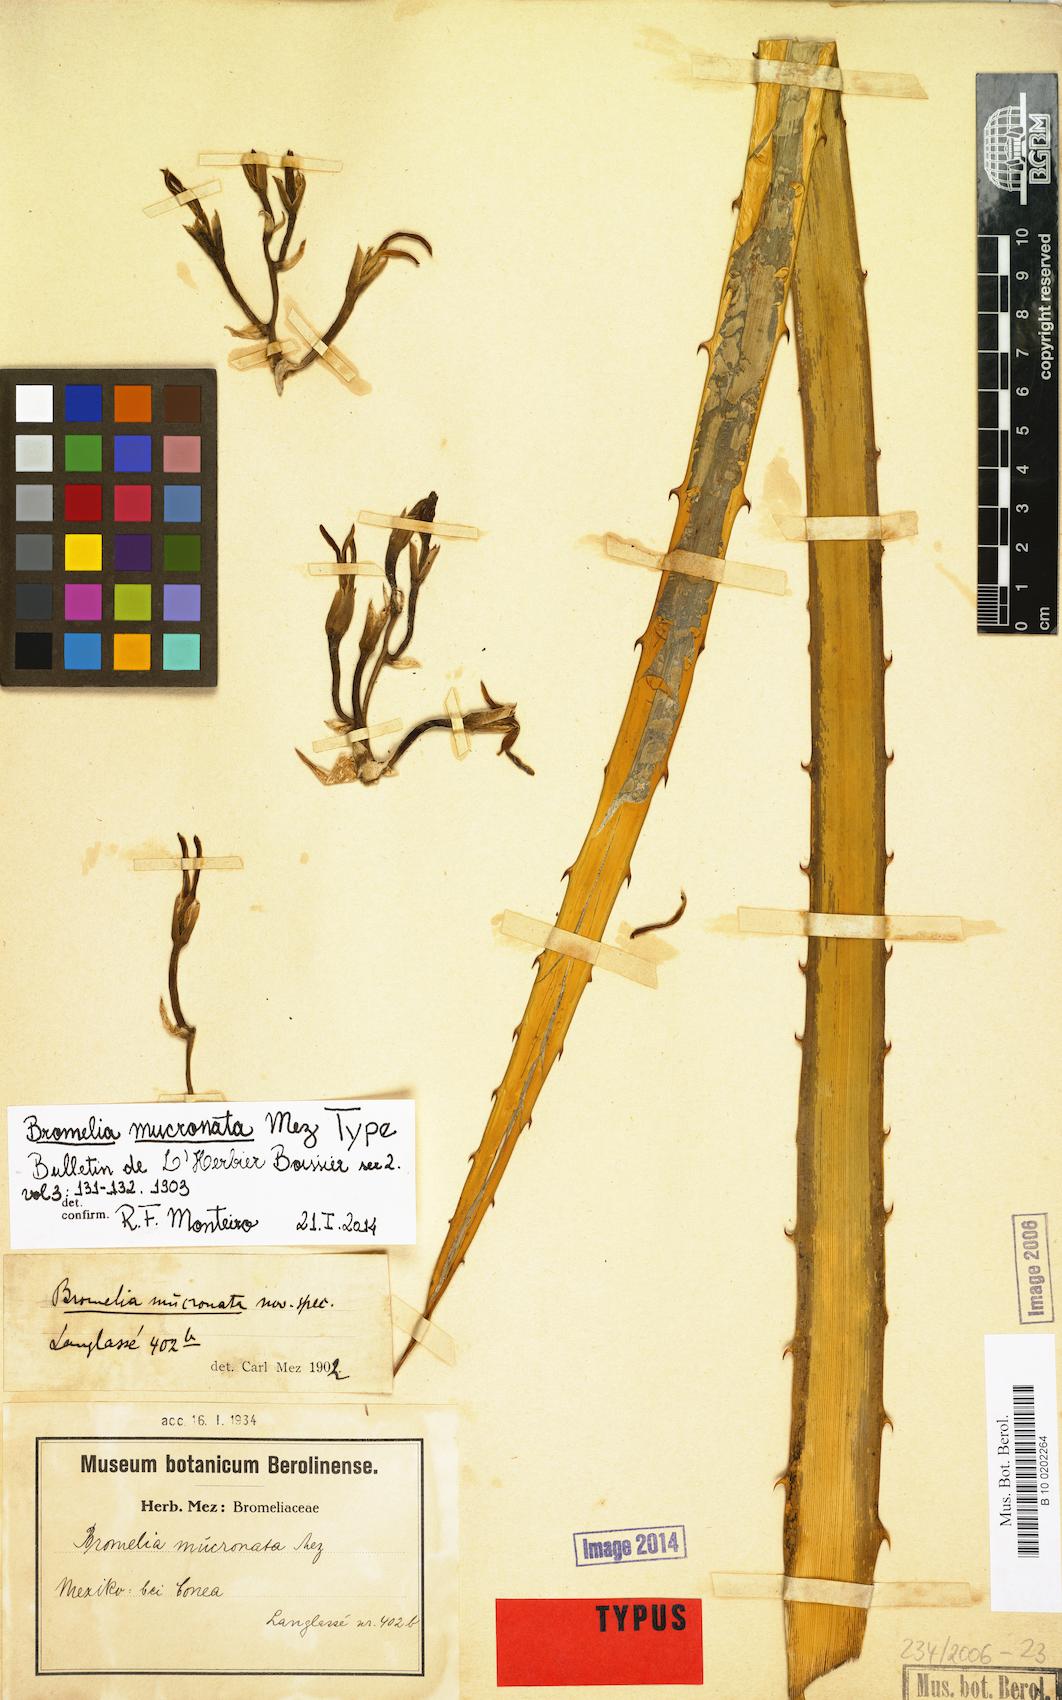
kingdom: Plantae
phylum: Tracheophyta
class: Liliopsida
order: Poales
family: Bromeliaceae
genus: Bromelia
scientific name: Bromelia palmeri
